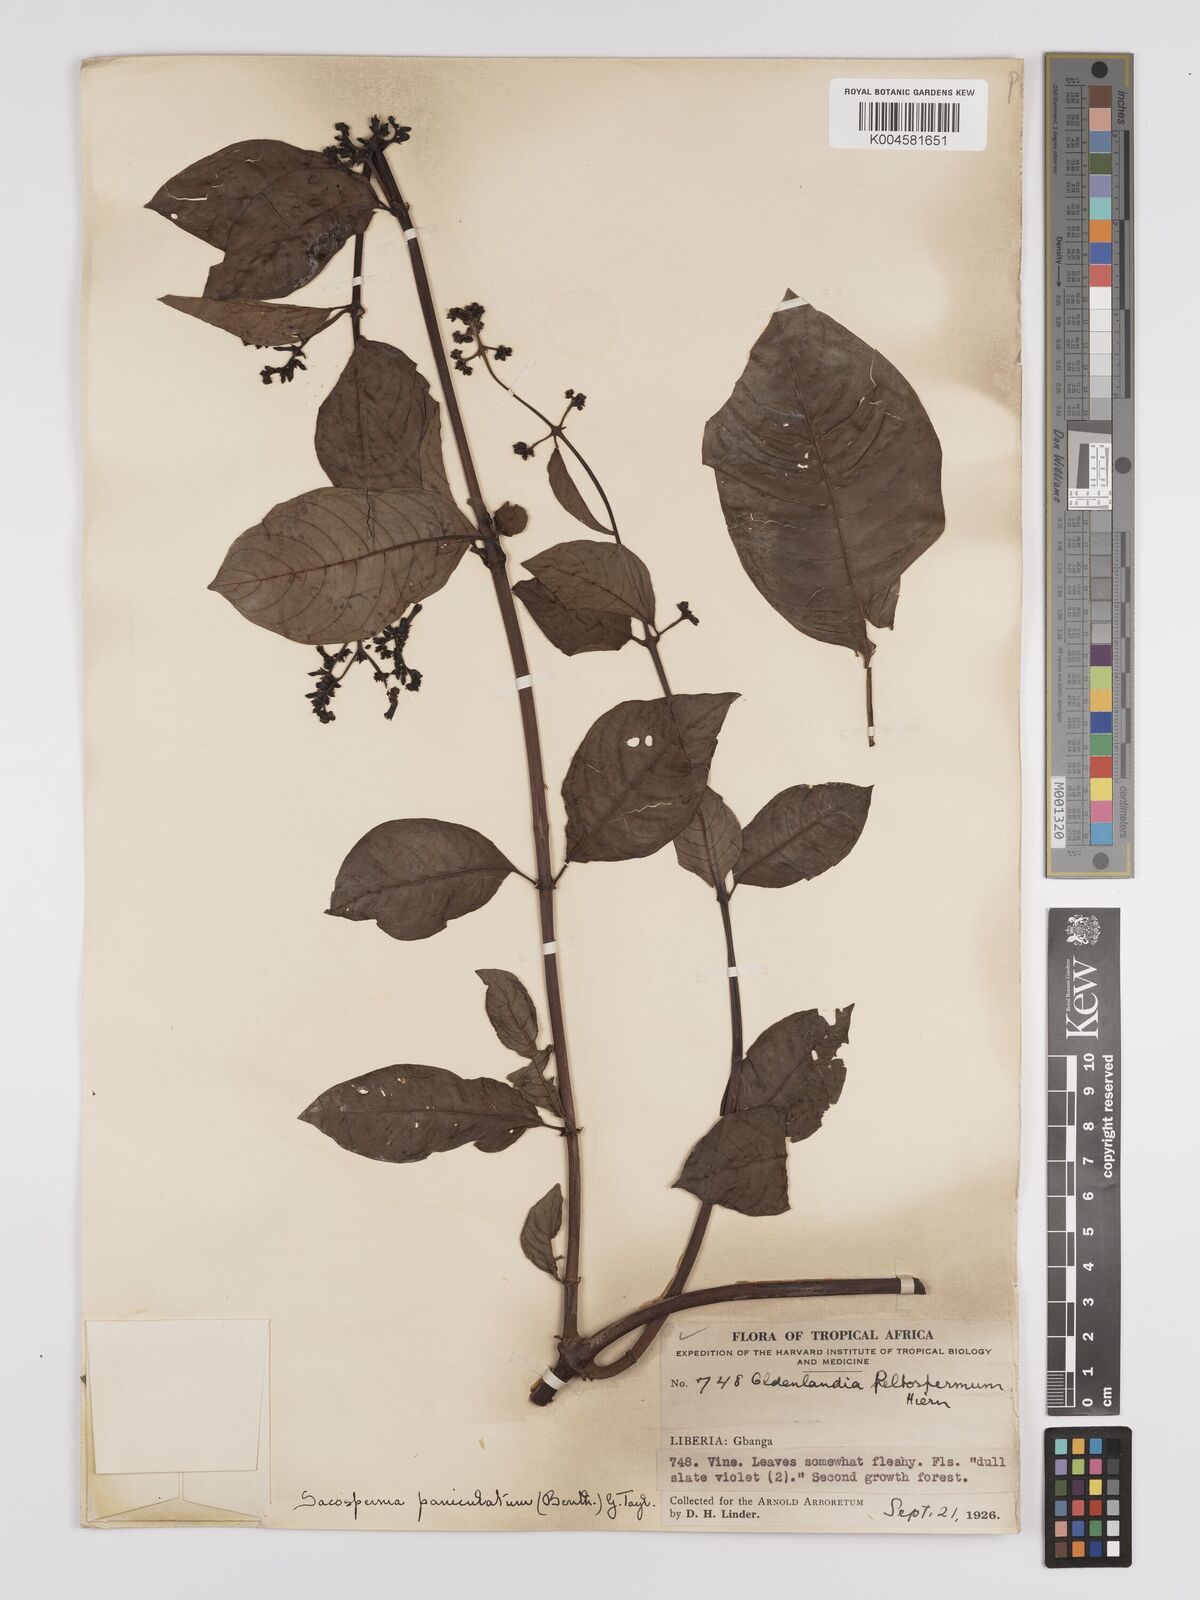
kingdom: Plantae
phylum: Tracheophyta
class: Magnoliopsida
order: Gentianales
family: Rubiaceae
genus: Sacosperma
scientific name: Sacosperma paniculatum
